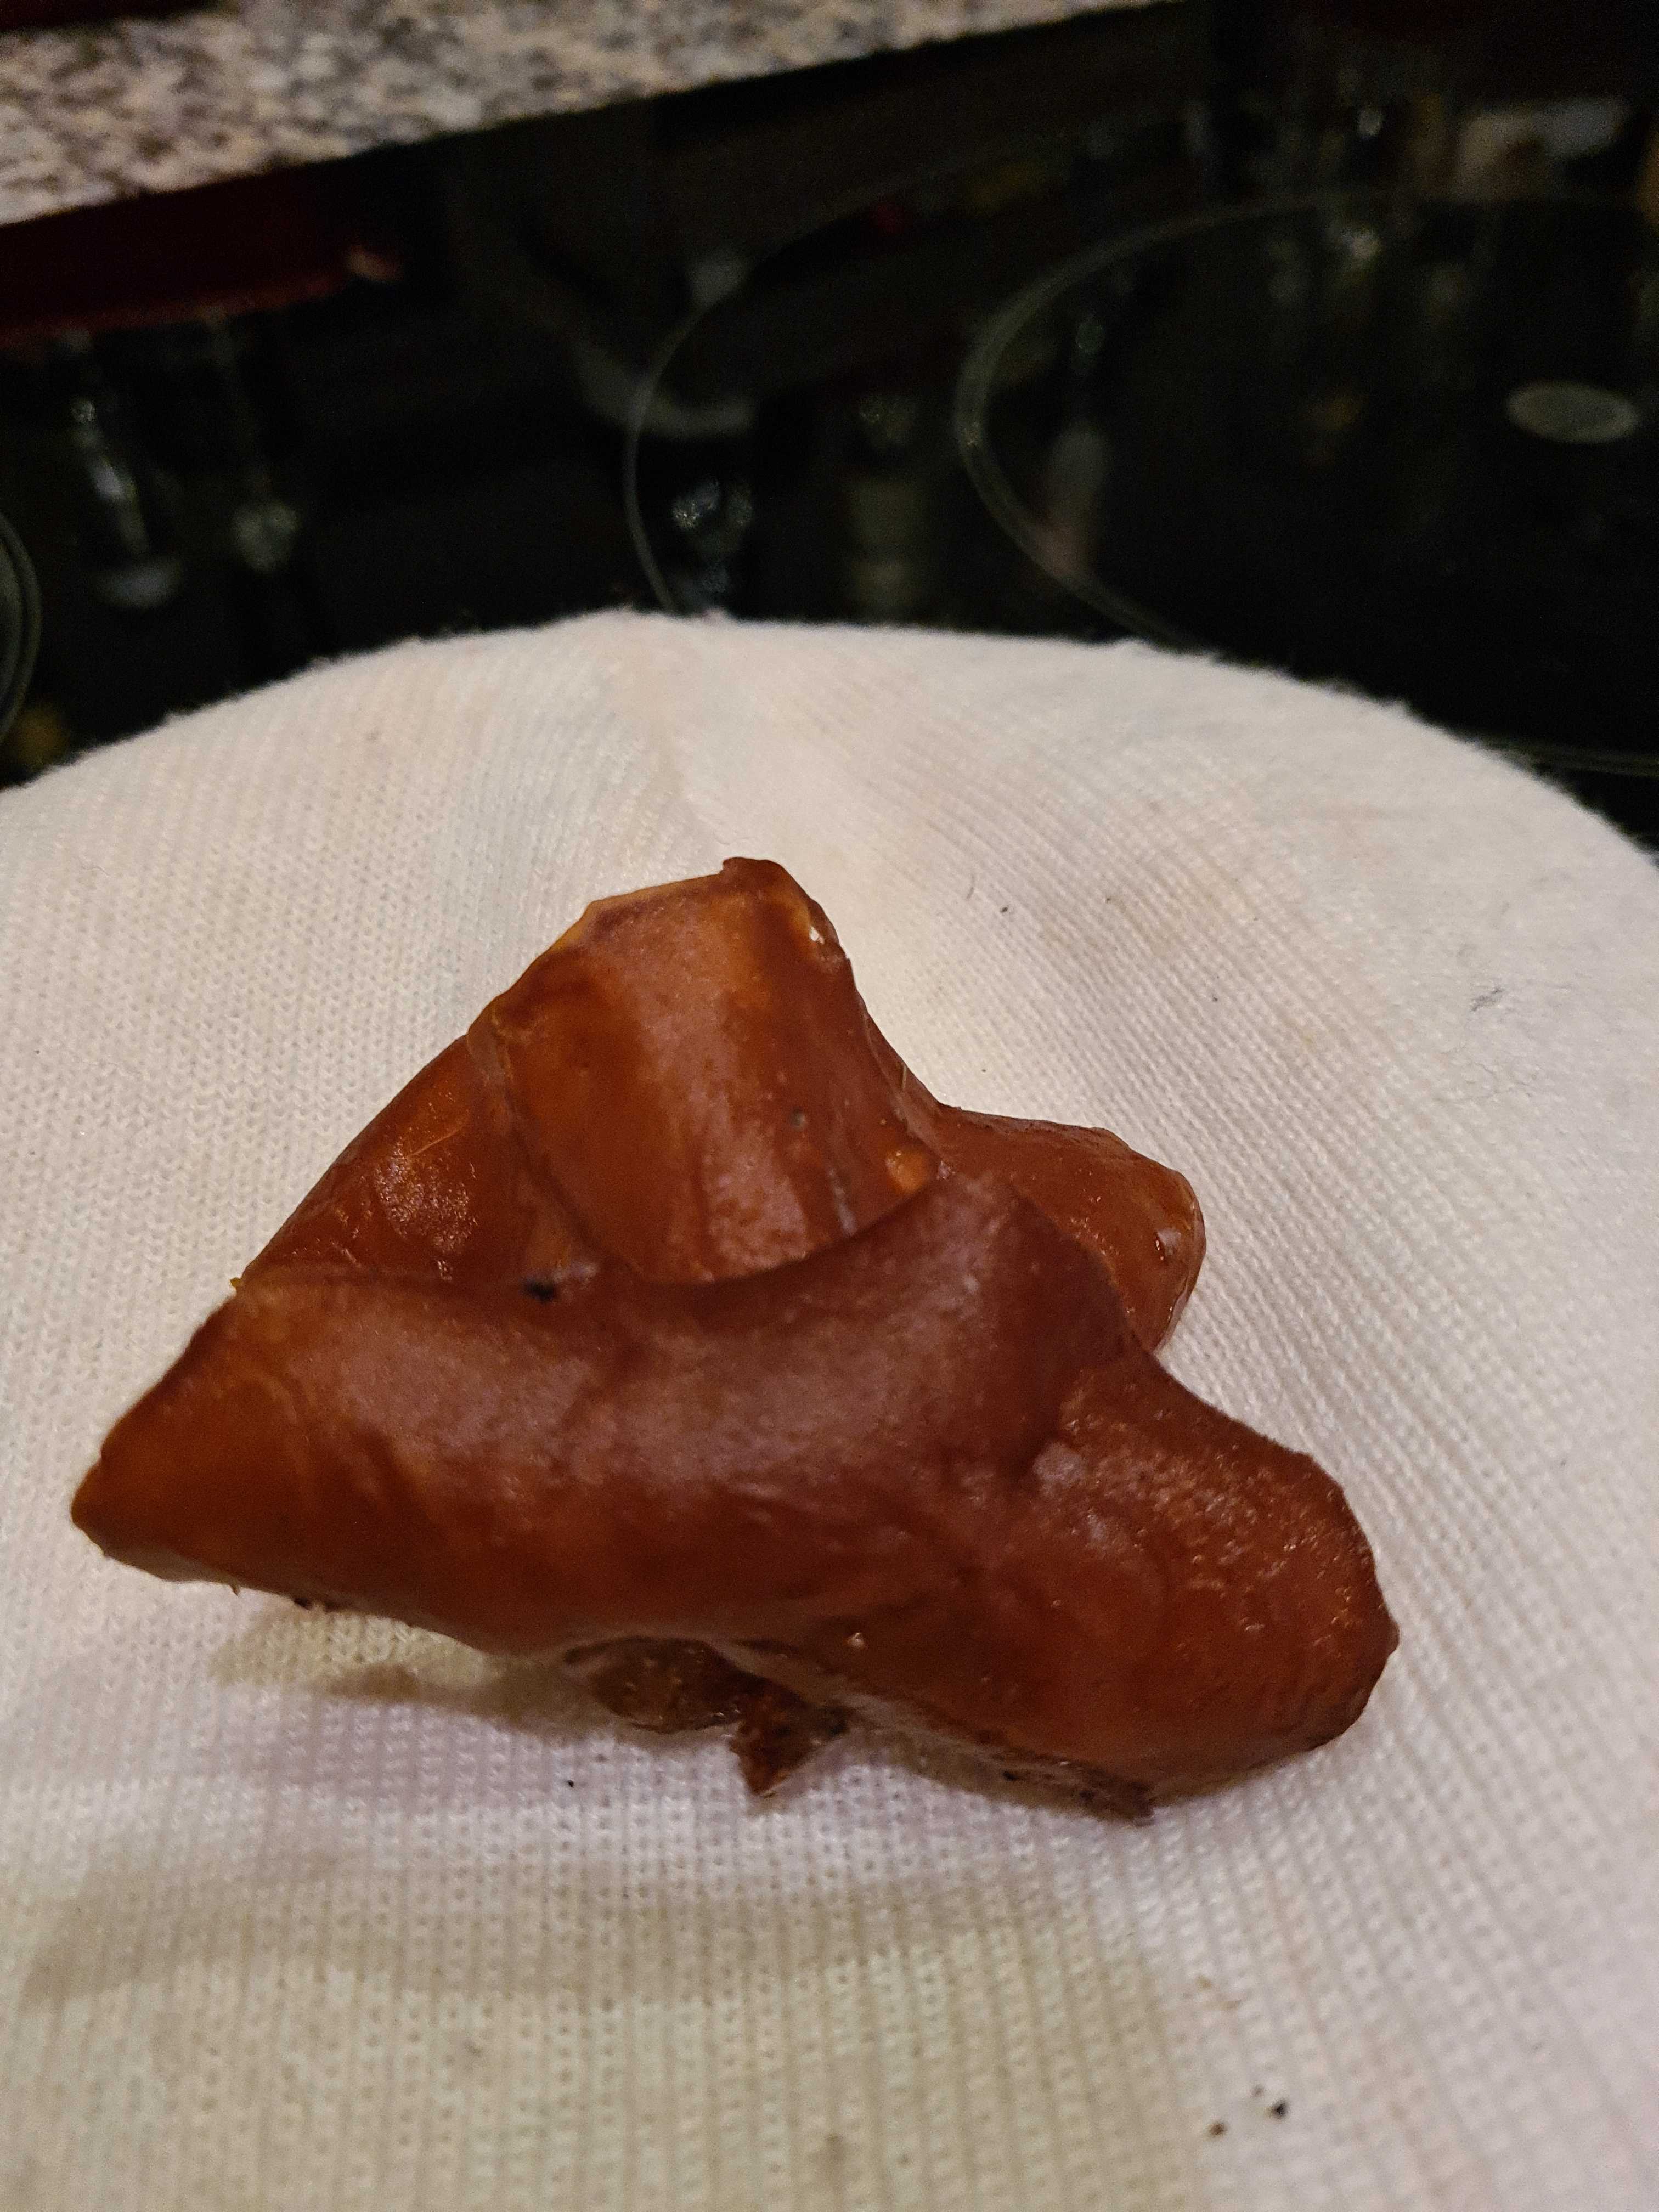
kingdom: Fungi
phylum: Basidiomycota
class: Agaricomycetes
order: Auriculariales
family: Auriculariaceae
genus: Auricularia
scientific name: Auricularia auricula-judae
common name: almindelig judasøre
